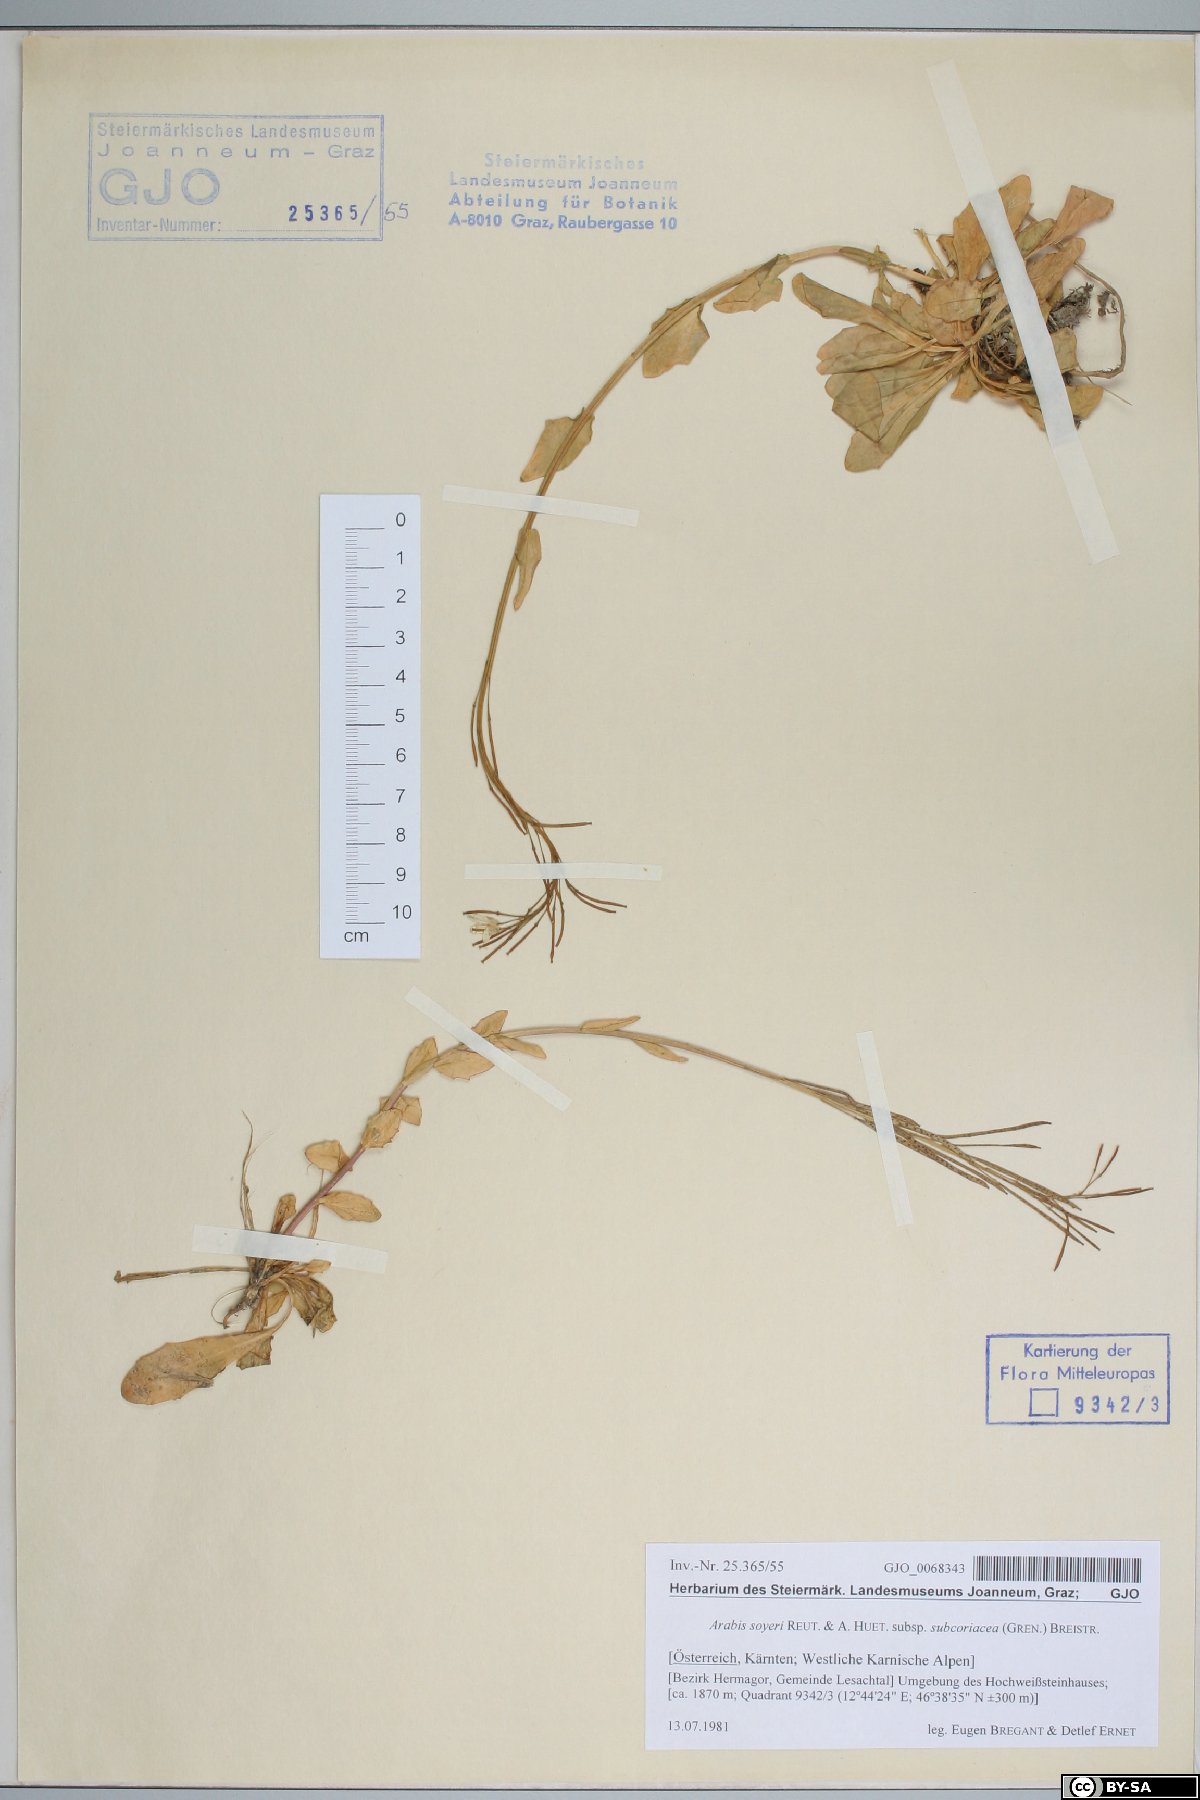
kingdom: Plantae
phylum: Tracheophyta
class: Magnoliopsida
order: Brassicales
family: Brassicaceae
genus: Arabis
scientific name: Arabis soyeri
